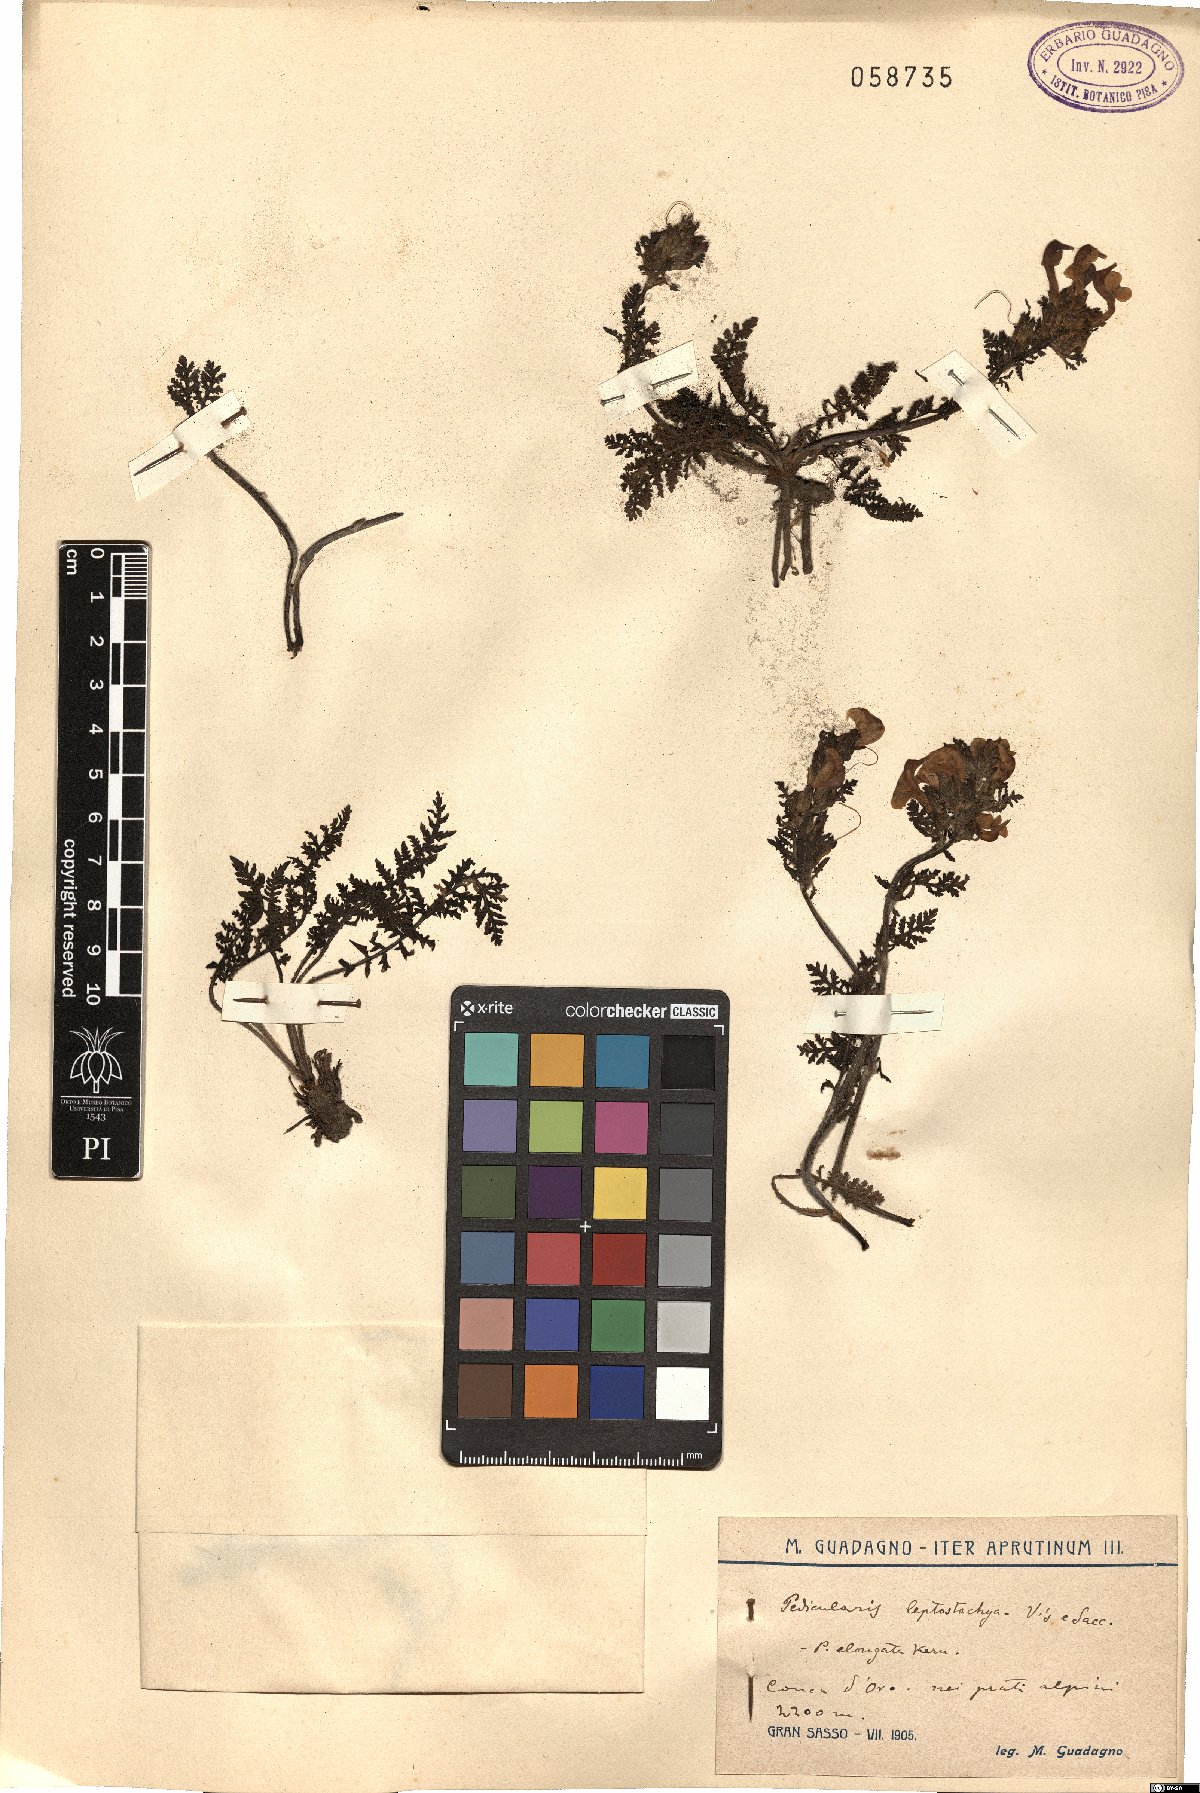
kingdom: Plantae
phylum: Tracheophyta
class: Magnoliopsida
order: Lamiales
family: Orobanchaceae
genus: Pedicularis
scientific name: Pedicularis elongata
